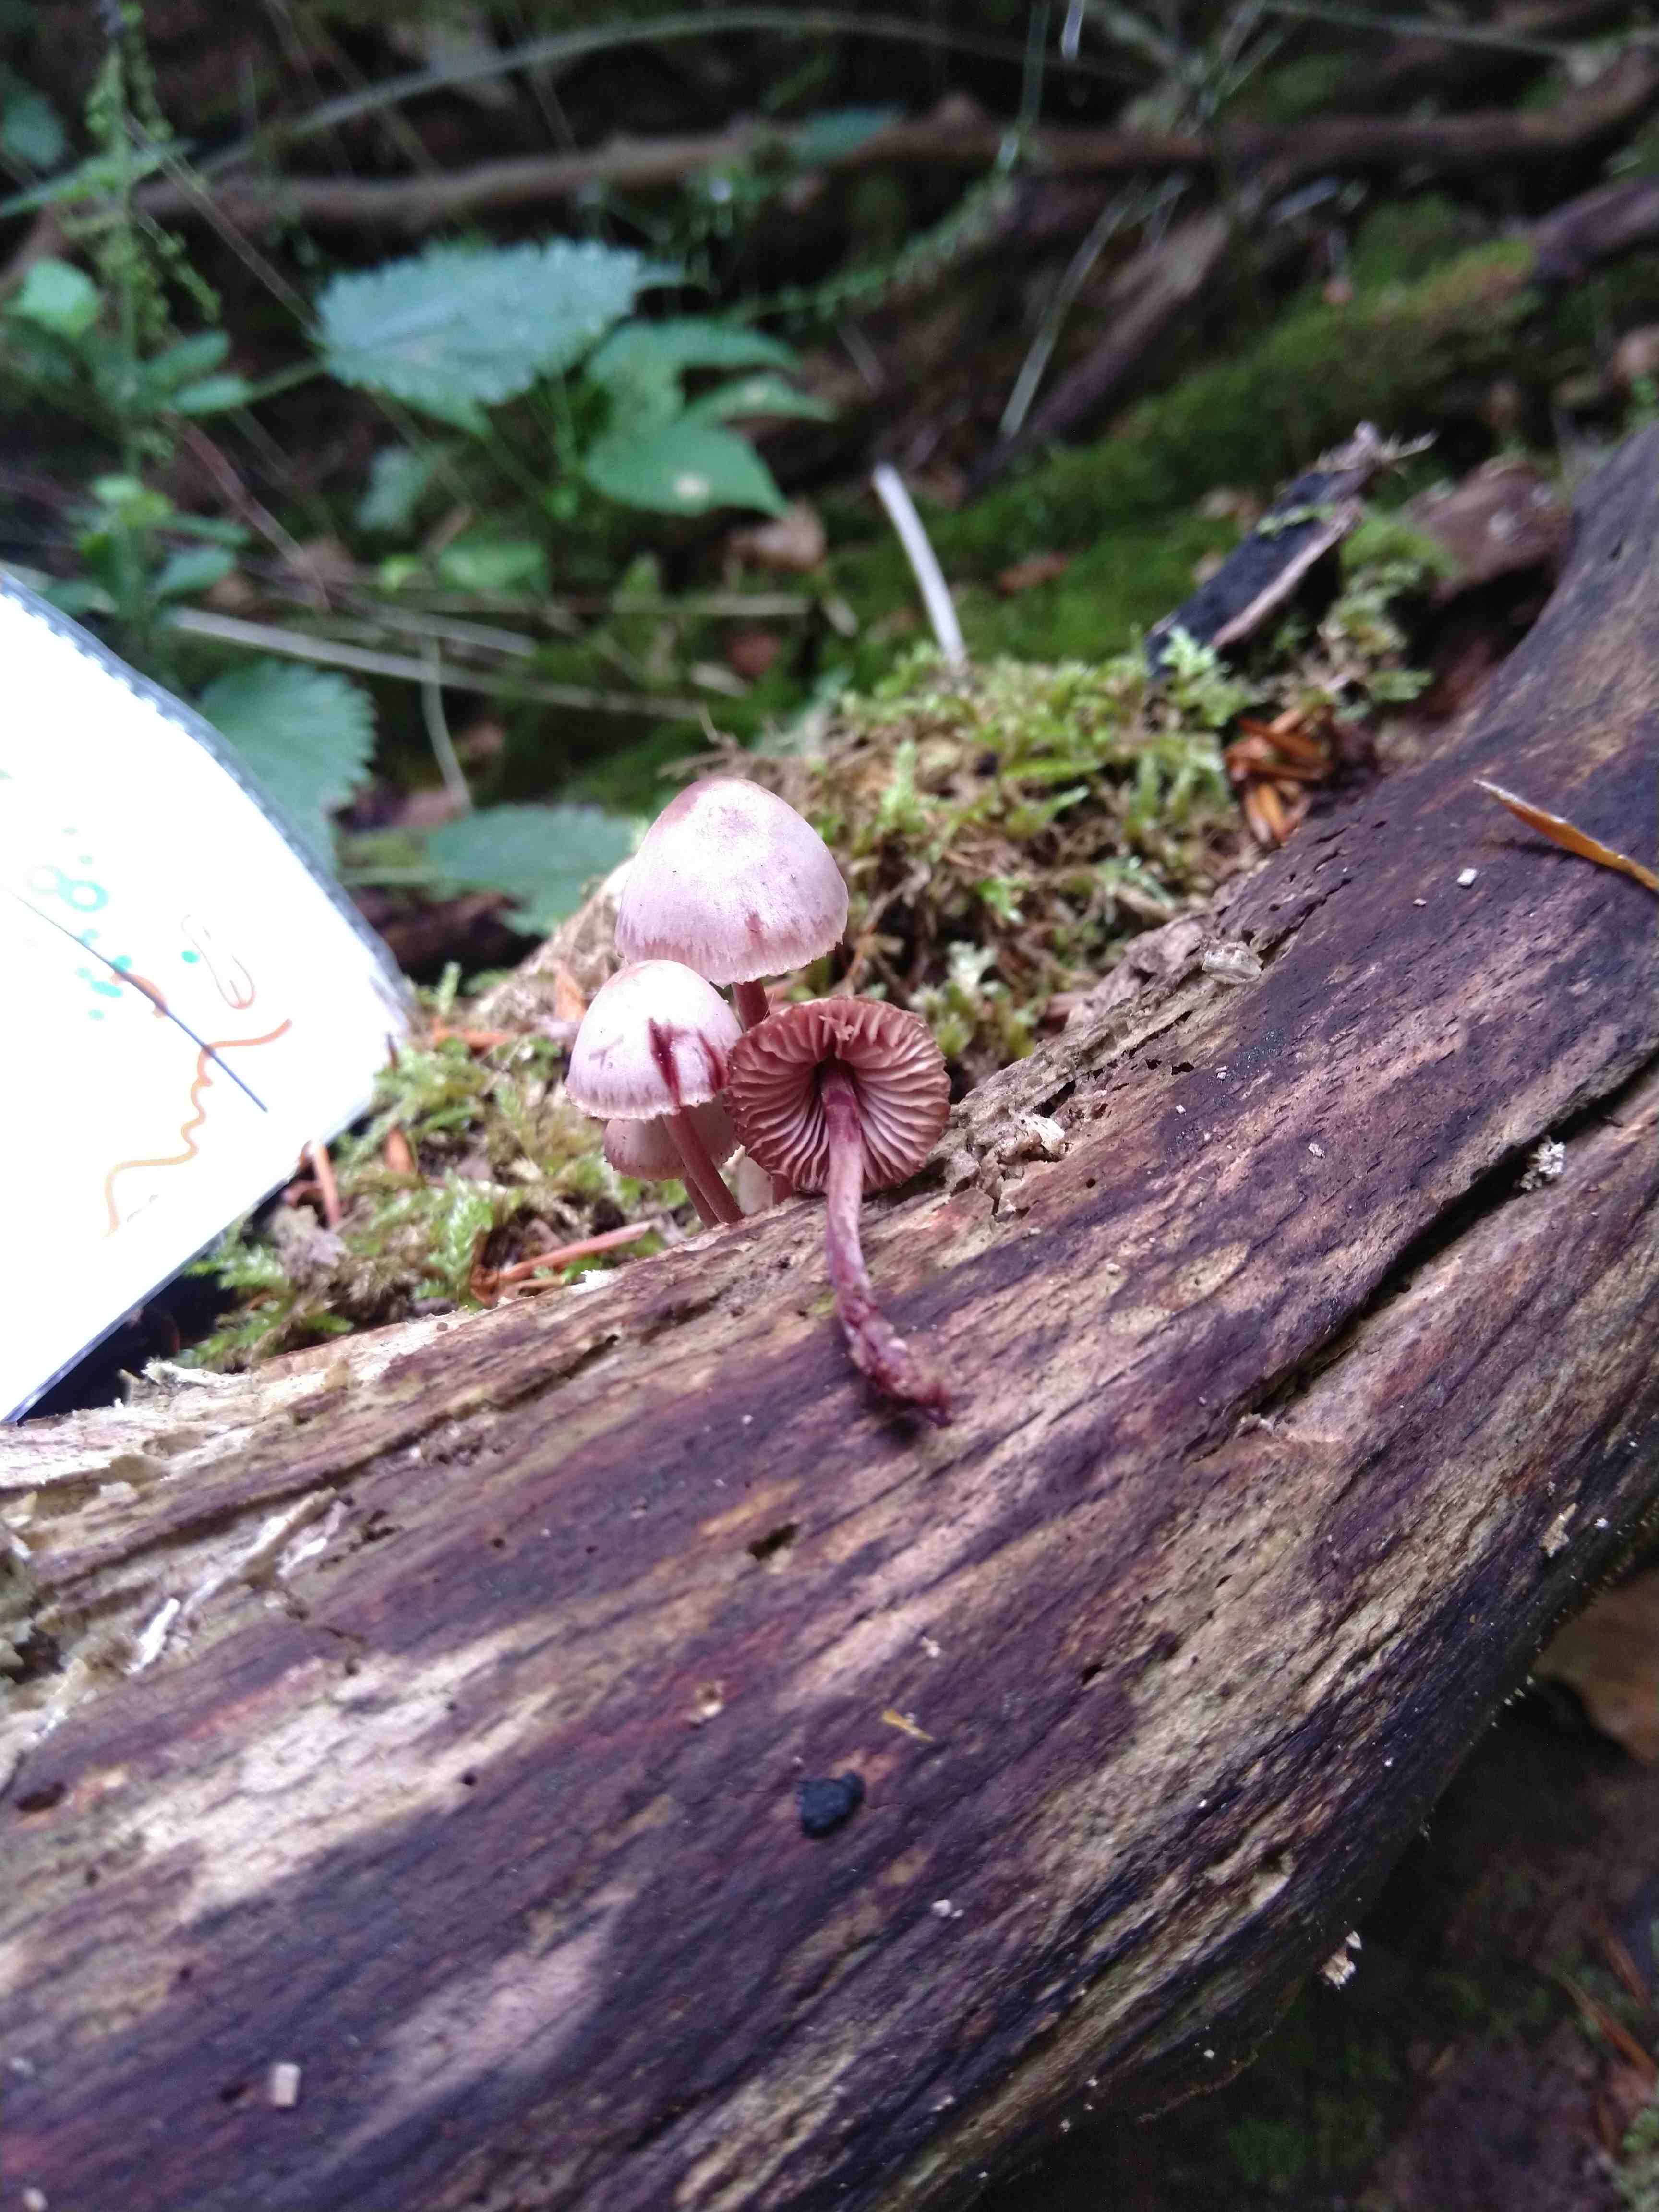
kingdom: Fungi
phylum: Basidiomycota
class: Agaricomycetes
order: Agaricales
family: Mycenaceae
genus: Mycena
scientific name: Mycena haematopus
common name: blødende huesvamp
